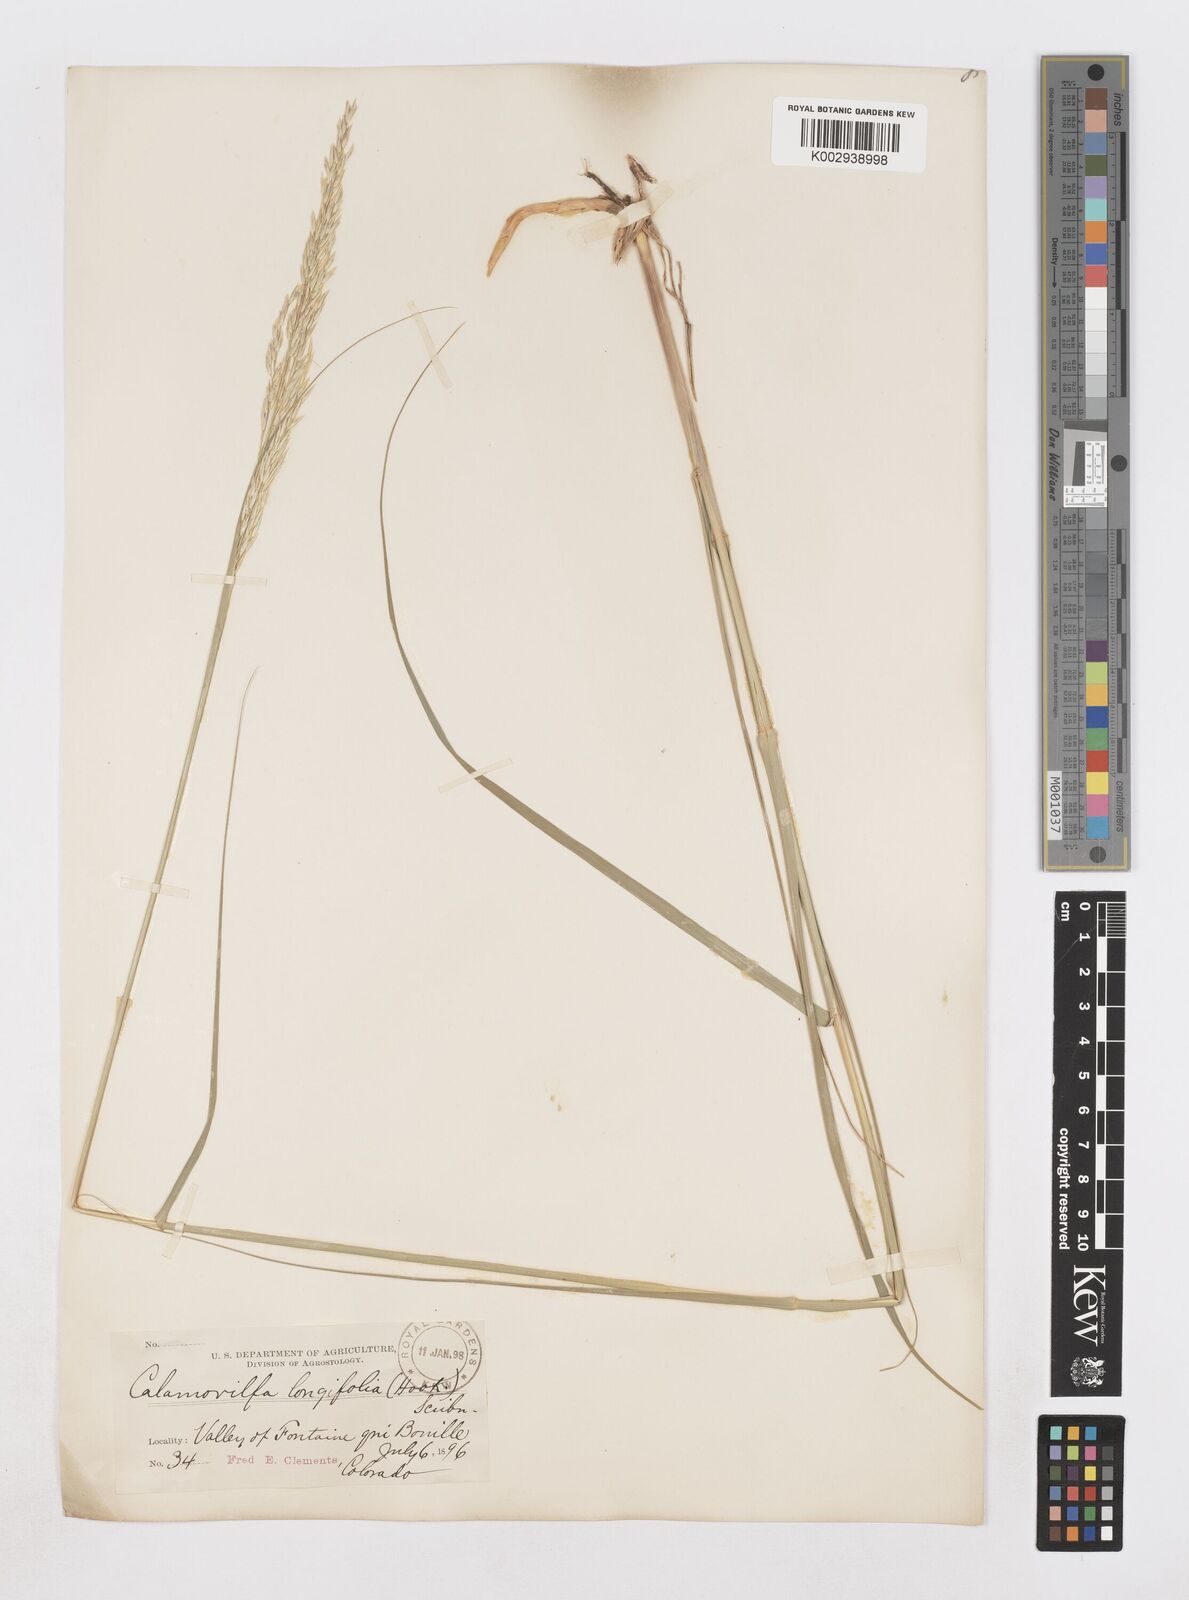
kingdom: Plantae
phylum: Tracheophyta
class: Liliopsida
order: Poales
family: Poaceae
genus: Sporobolus
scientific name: Sporobolus rigidus
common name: Prairie sandreed
